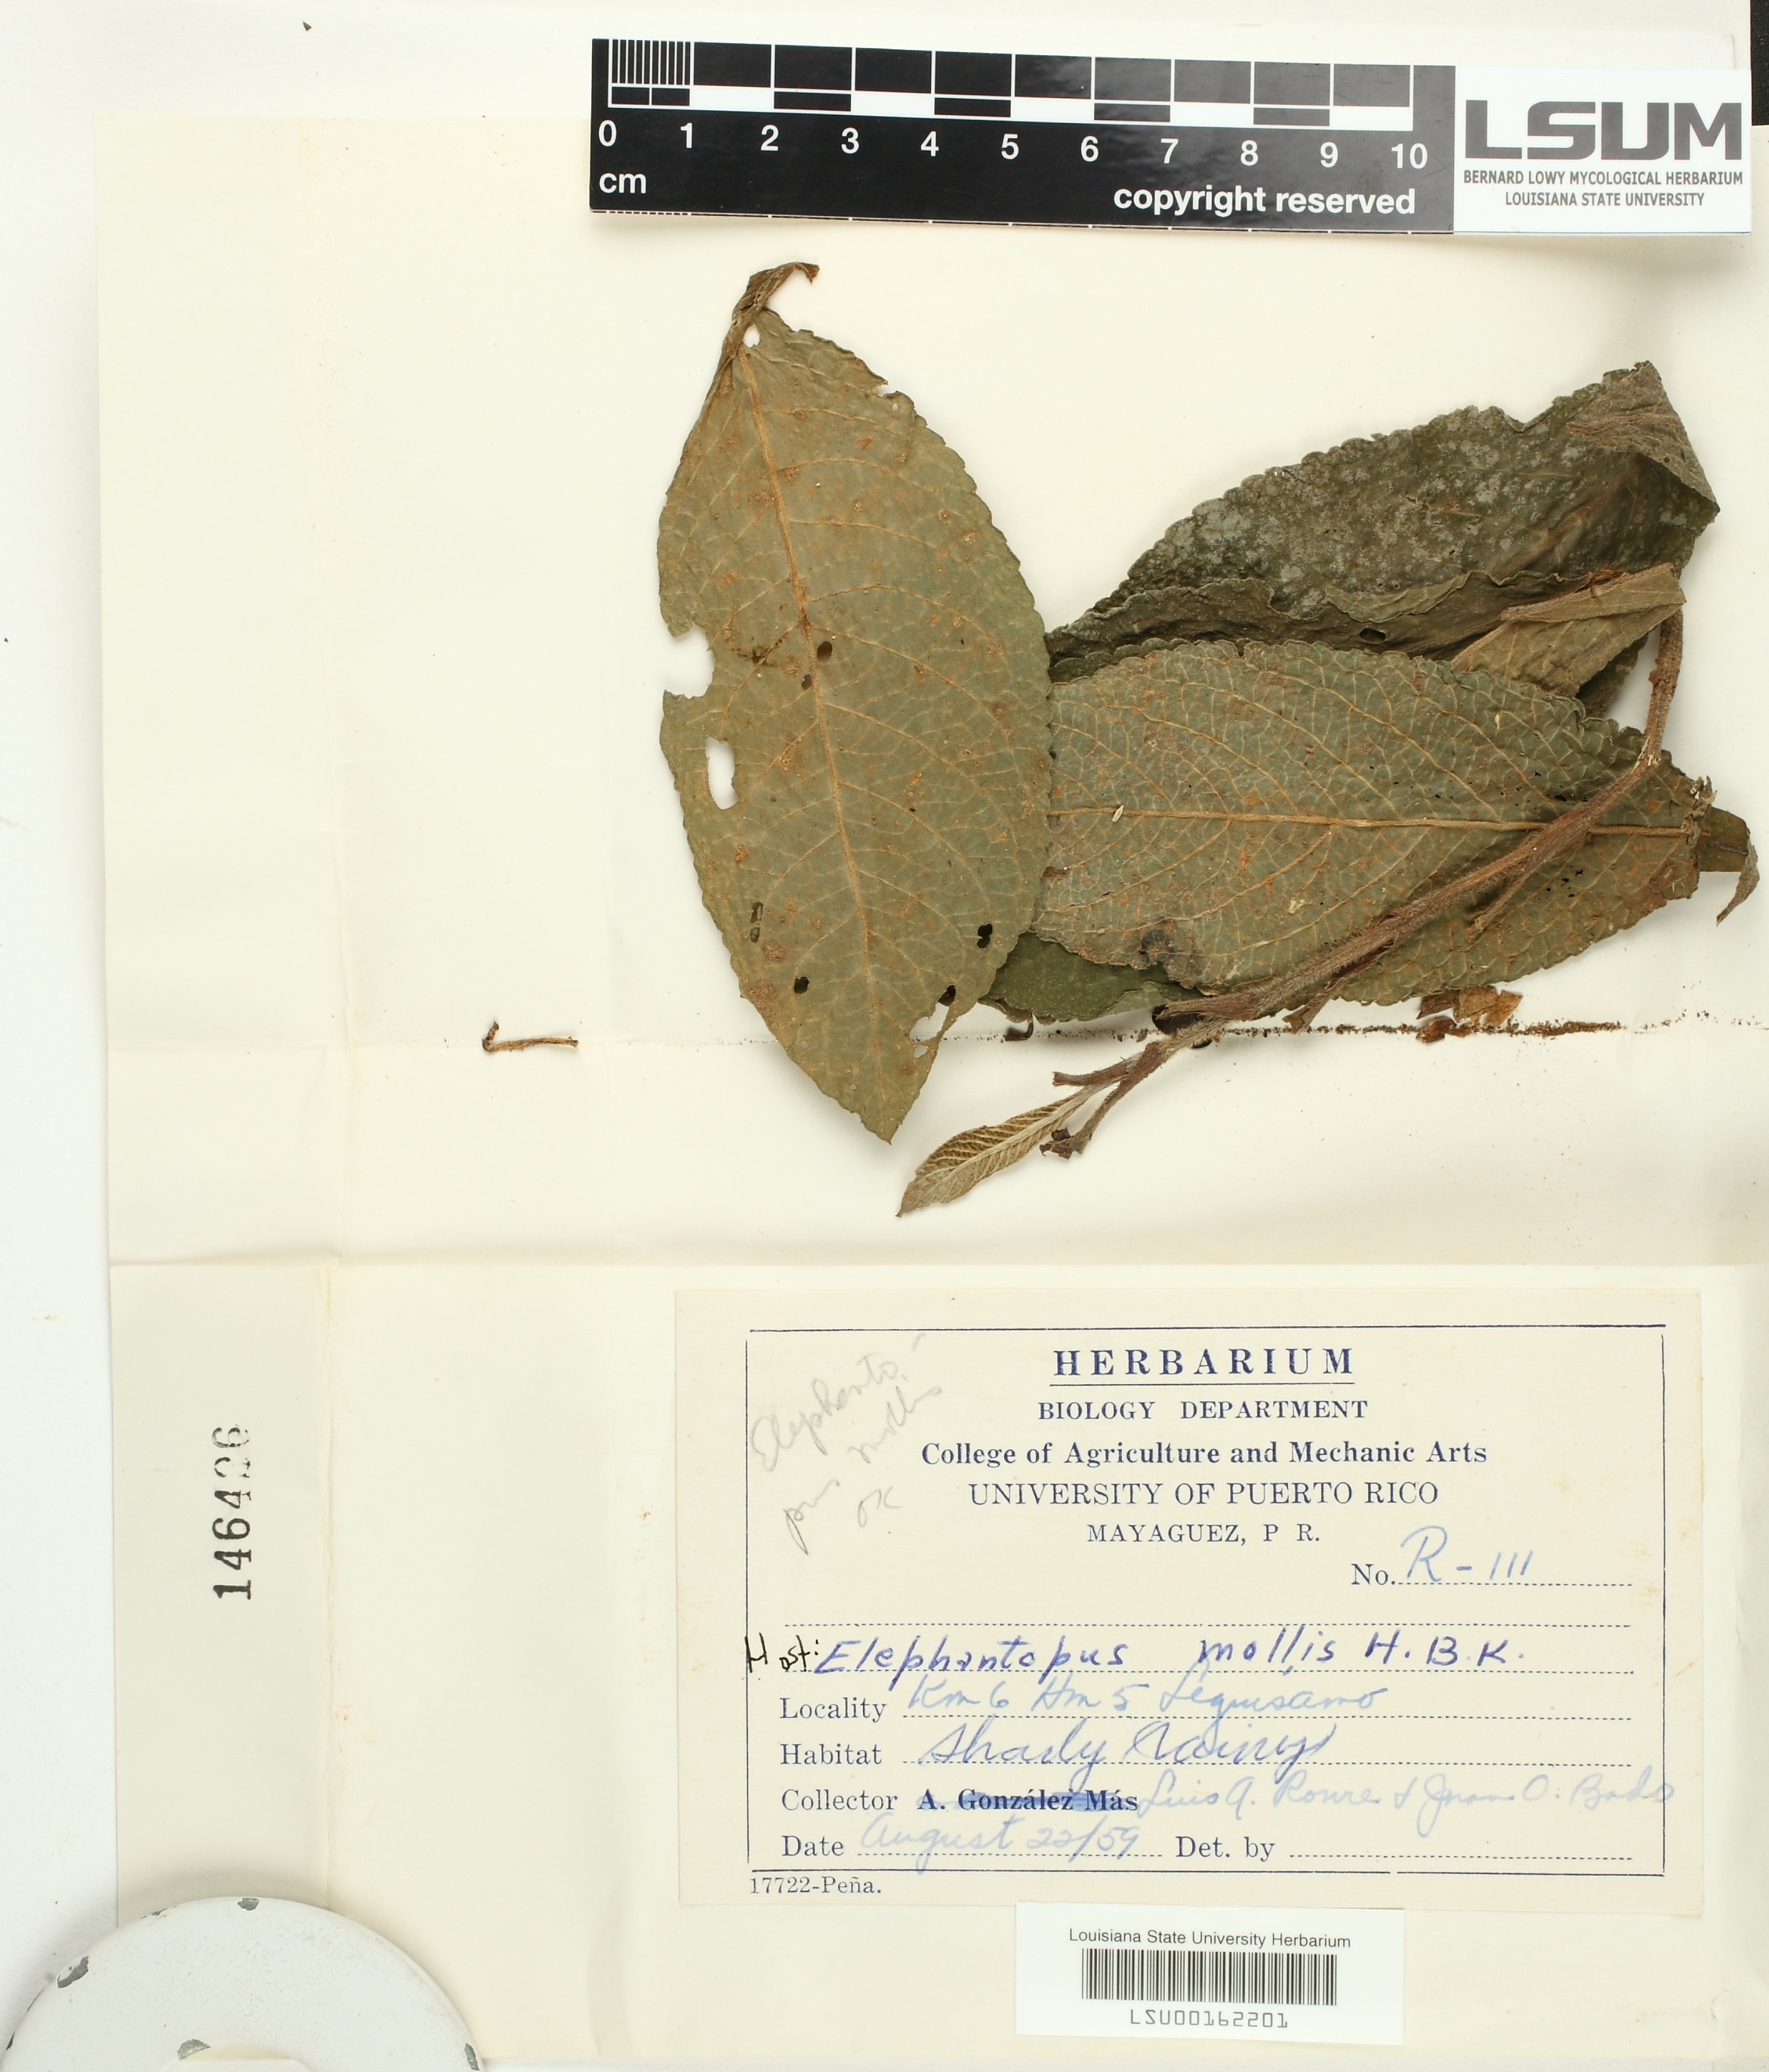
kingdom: Fungi
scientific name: Fungi
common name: Fungi
